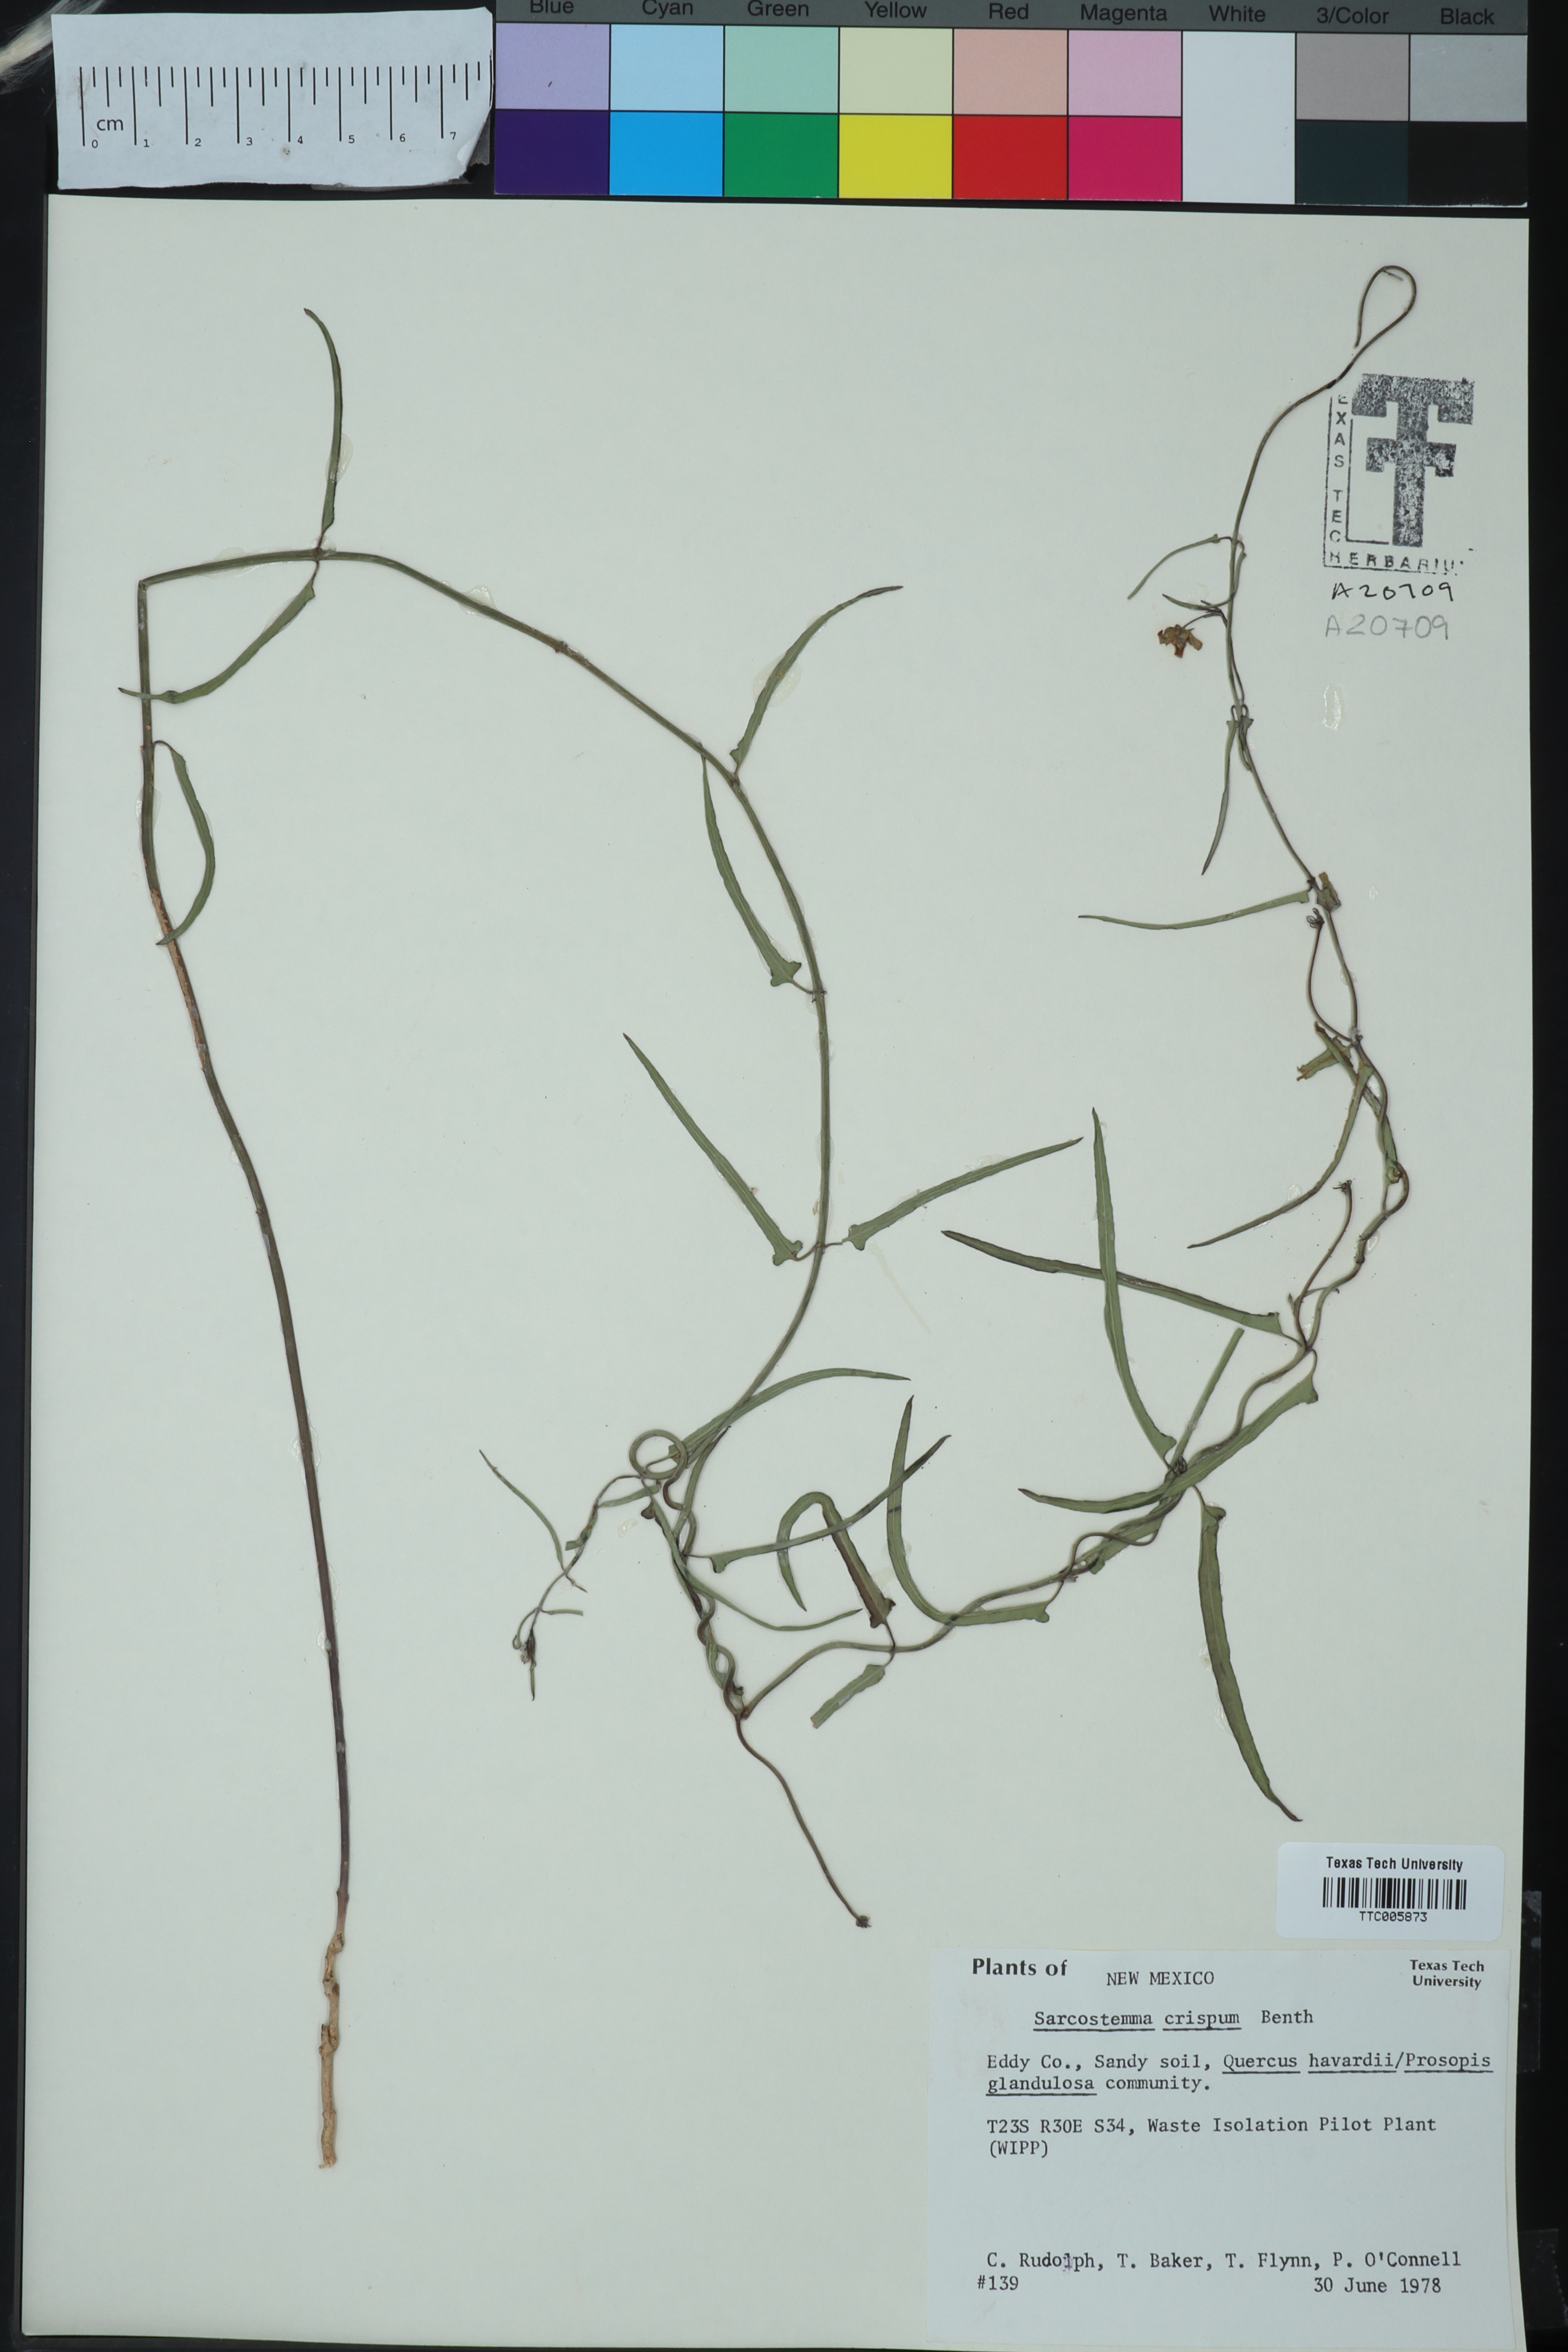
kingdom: Plantae
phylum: Tracheophyta
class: Magnoliopsida
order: Gentianales
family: Apocynaceae
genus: Funastrum
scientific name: Funastrum crispum
